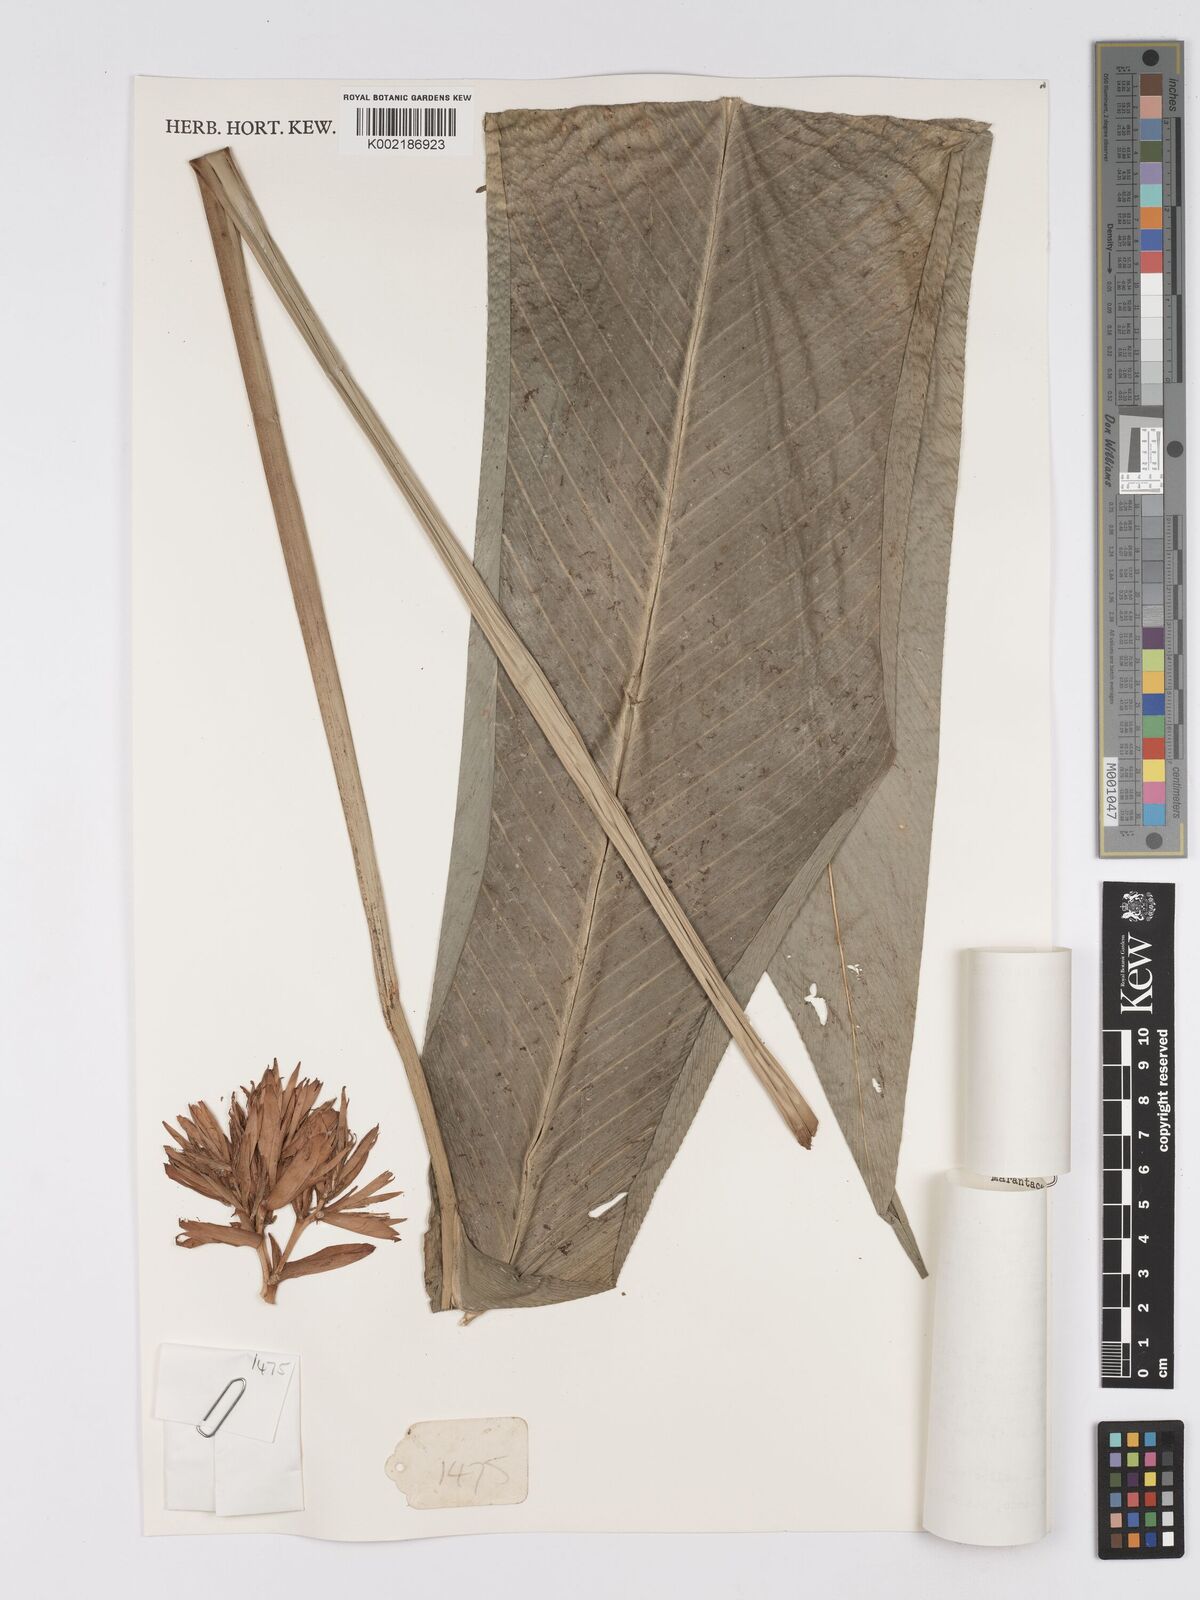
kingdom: Plantae
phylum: Tracheophyta
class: Liliopsida
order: Zingiberales
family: Marantaceae
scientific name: Marantaceae
